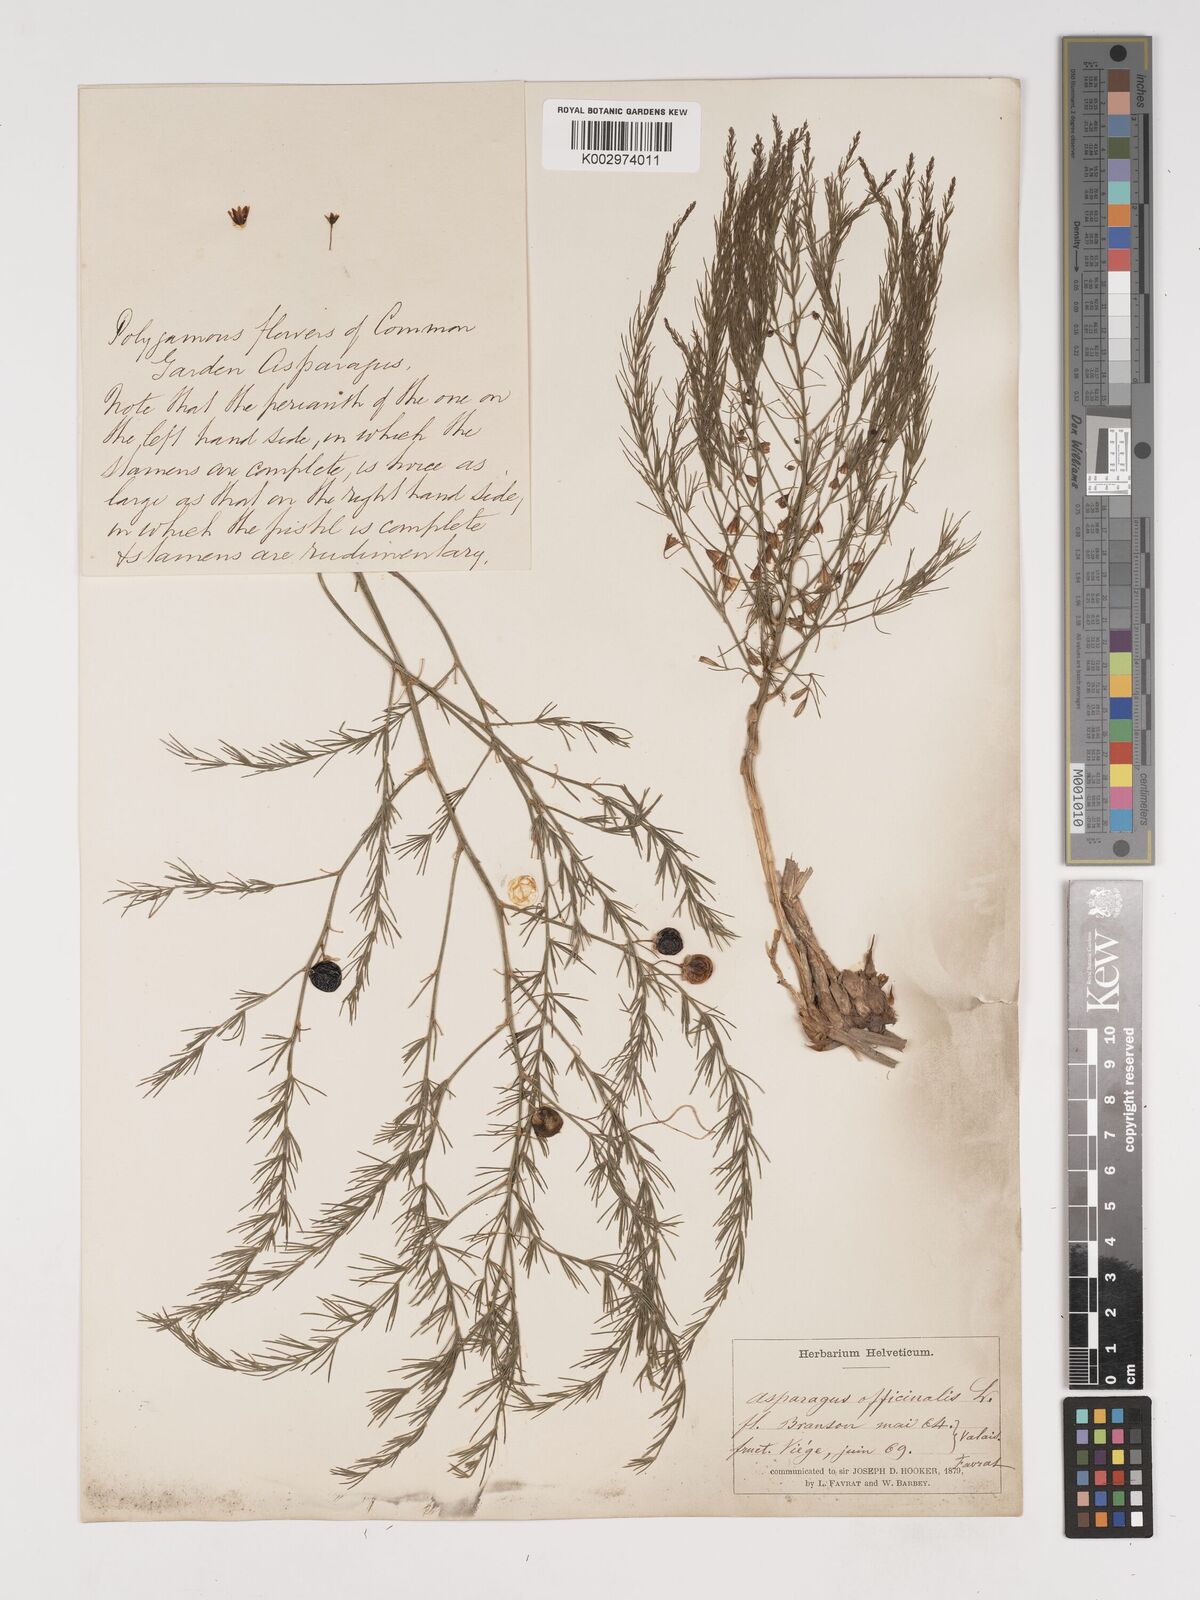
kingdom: Plantae
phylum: Tracheophyta
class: Liliopsida
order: Asparagales
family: Asparagaceae
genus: Asparagus
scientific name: Asparagus officinalis
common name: Garden asparagus
